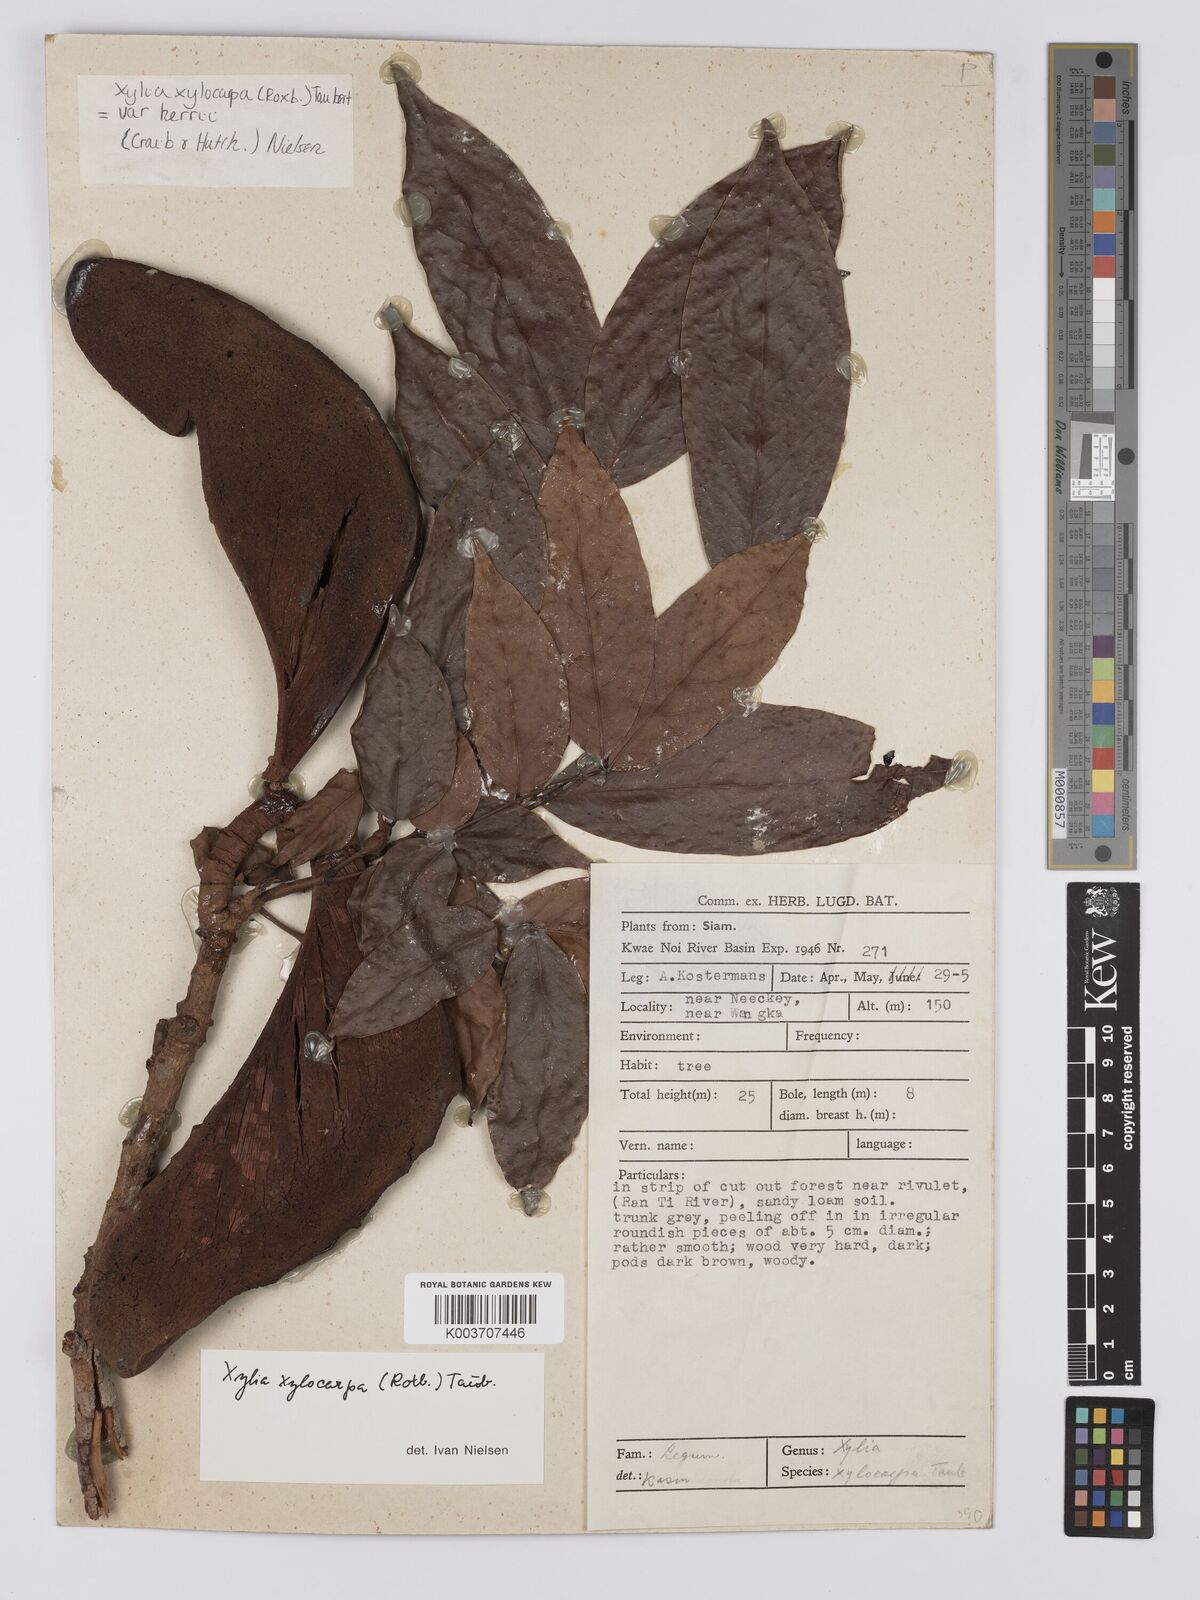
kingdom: Plantae
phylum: Tracheophyta
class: Magnoliopsida
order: Fabales
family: Fabaceae
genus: Xylia
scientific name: Xylia xylocarpa
